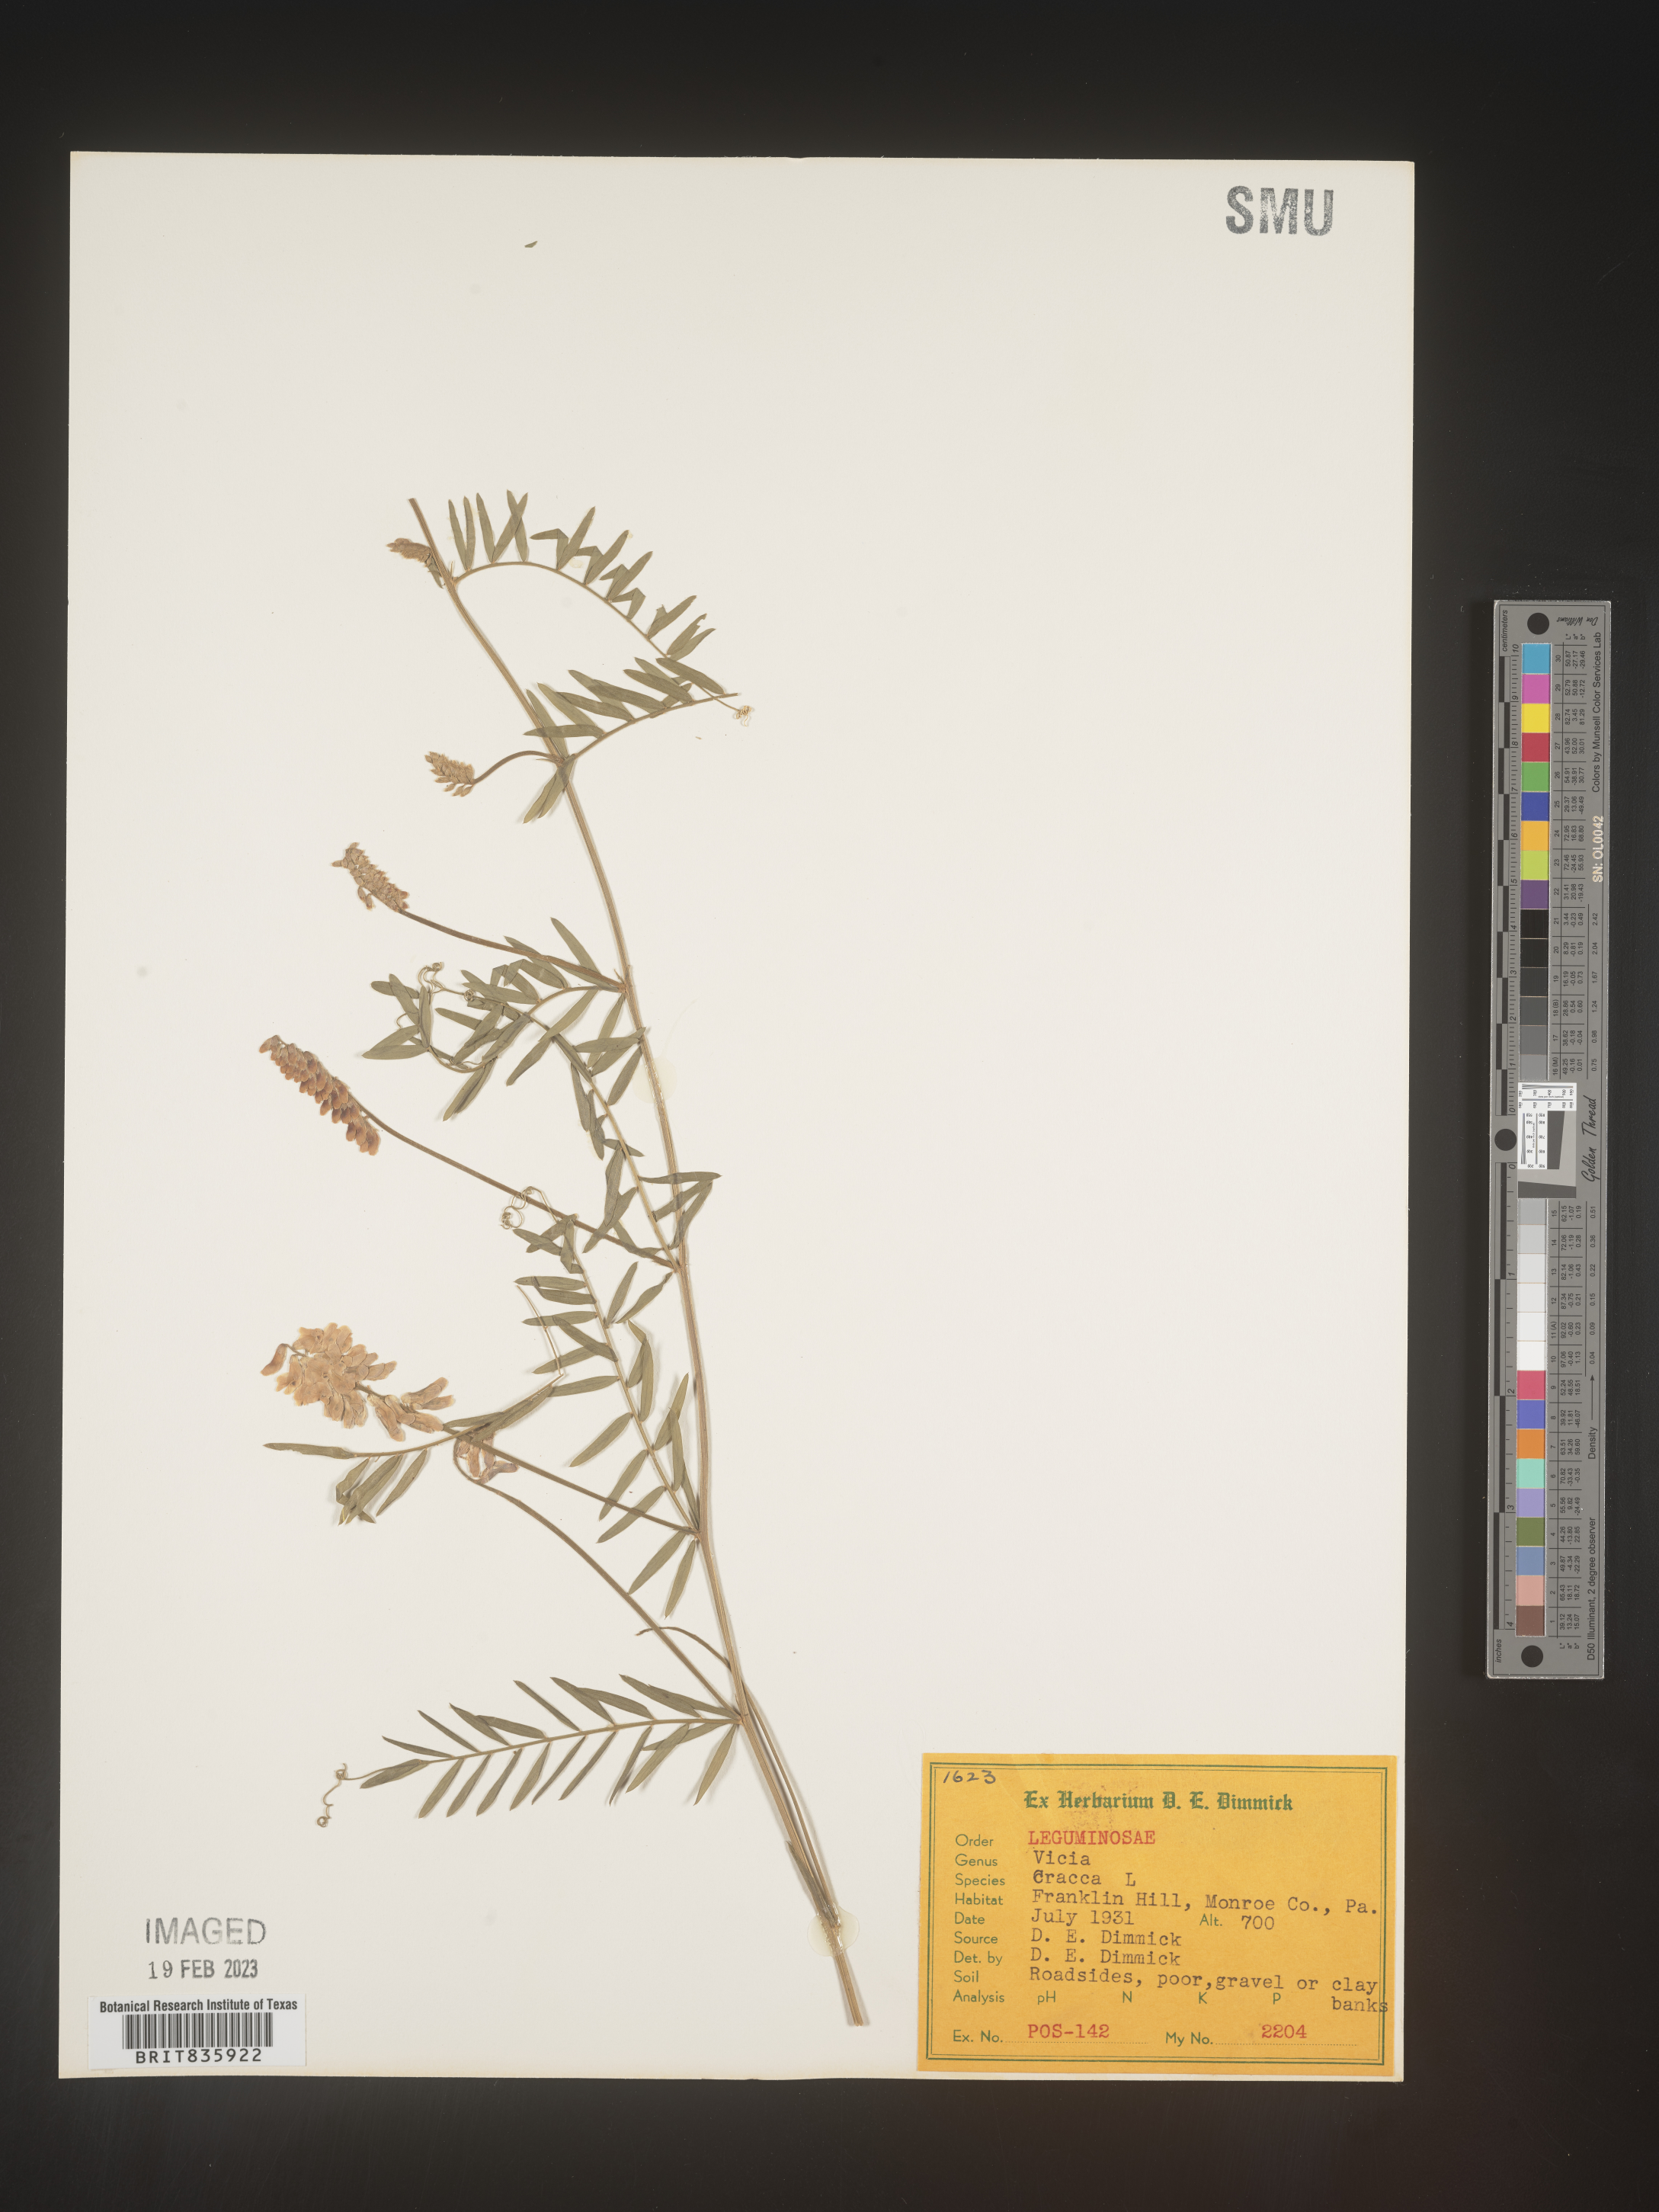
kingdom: Plantae
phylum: Tracheophyta
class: Magnoliopsida
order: Fabales
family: Fabaceae
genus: Vicia
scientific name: Vicia cracca
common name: Bird vetch
